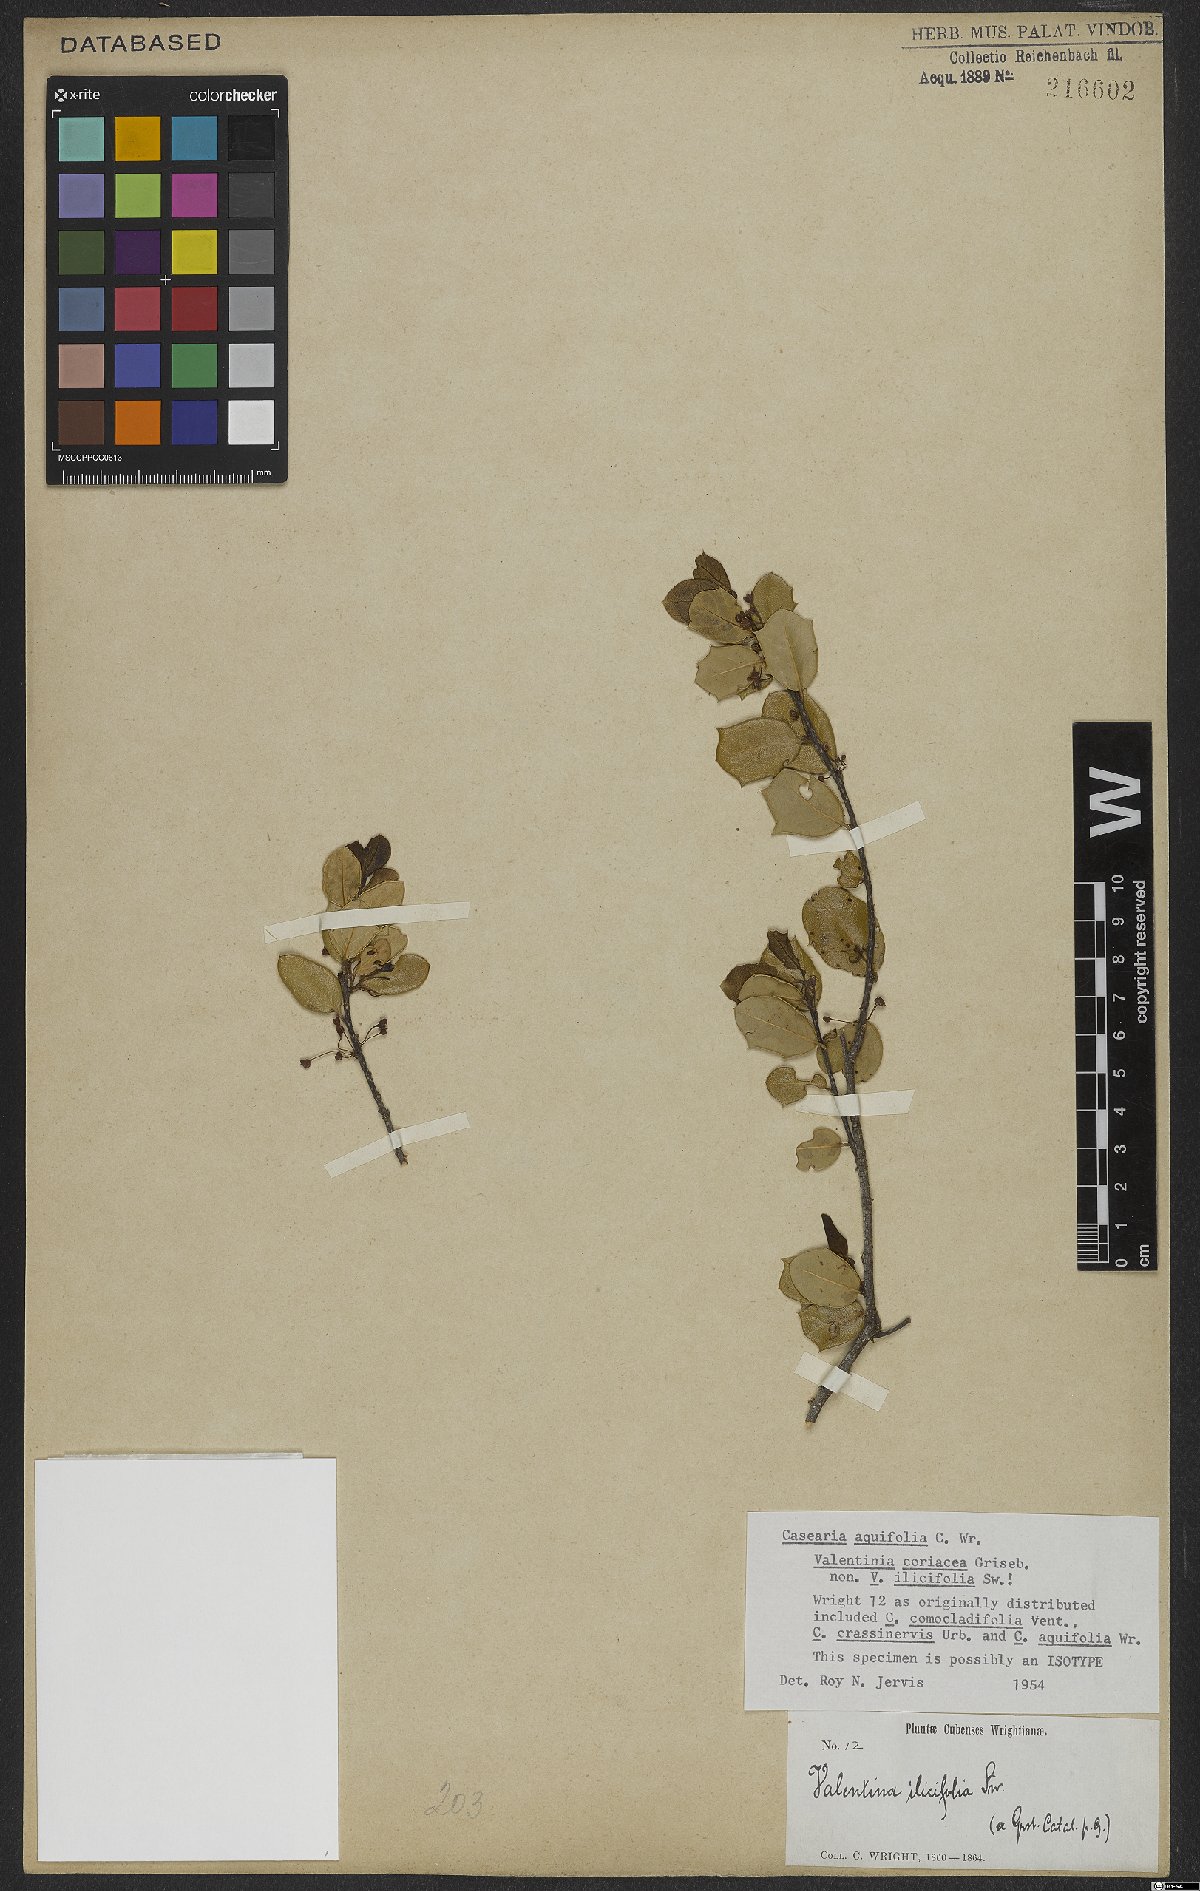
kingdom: Plantae
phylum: Tracheophyta
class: Magnoliopsida
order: Malpighiales
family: Salicaceae
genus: Casearia
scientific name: Casearia aquifolia
